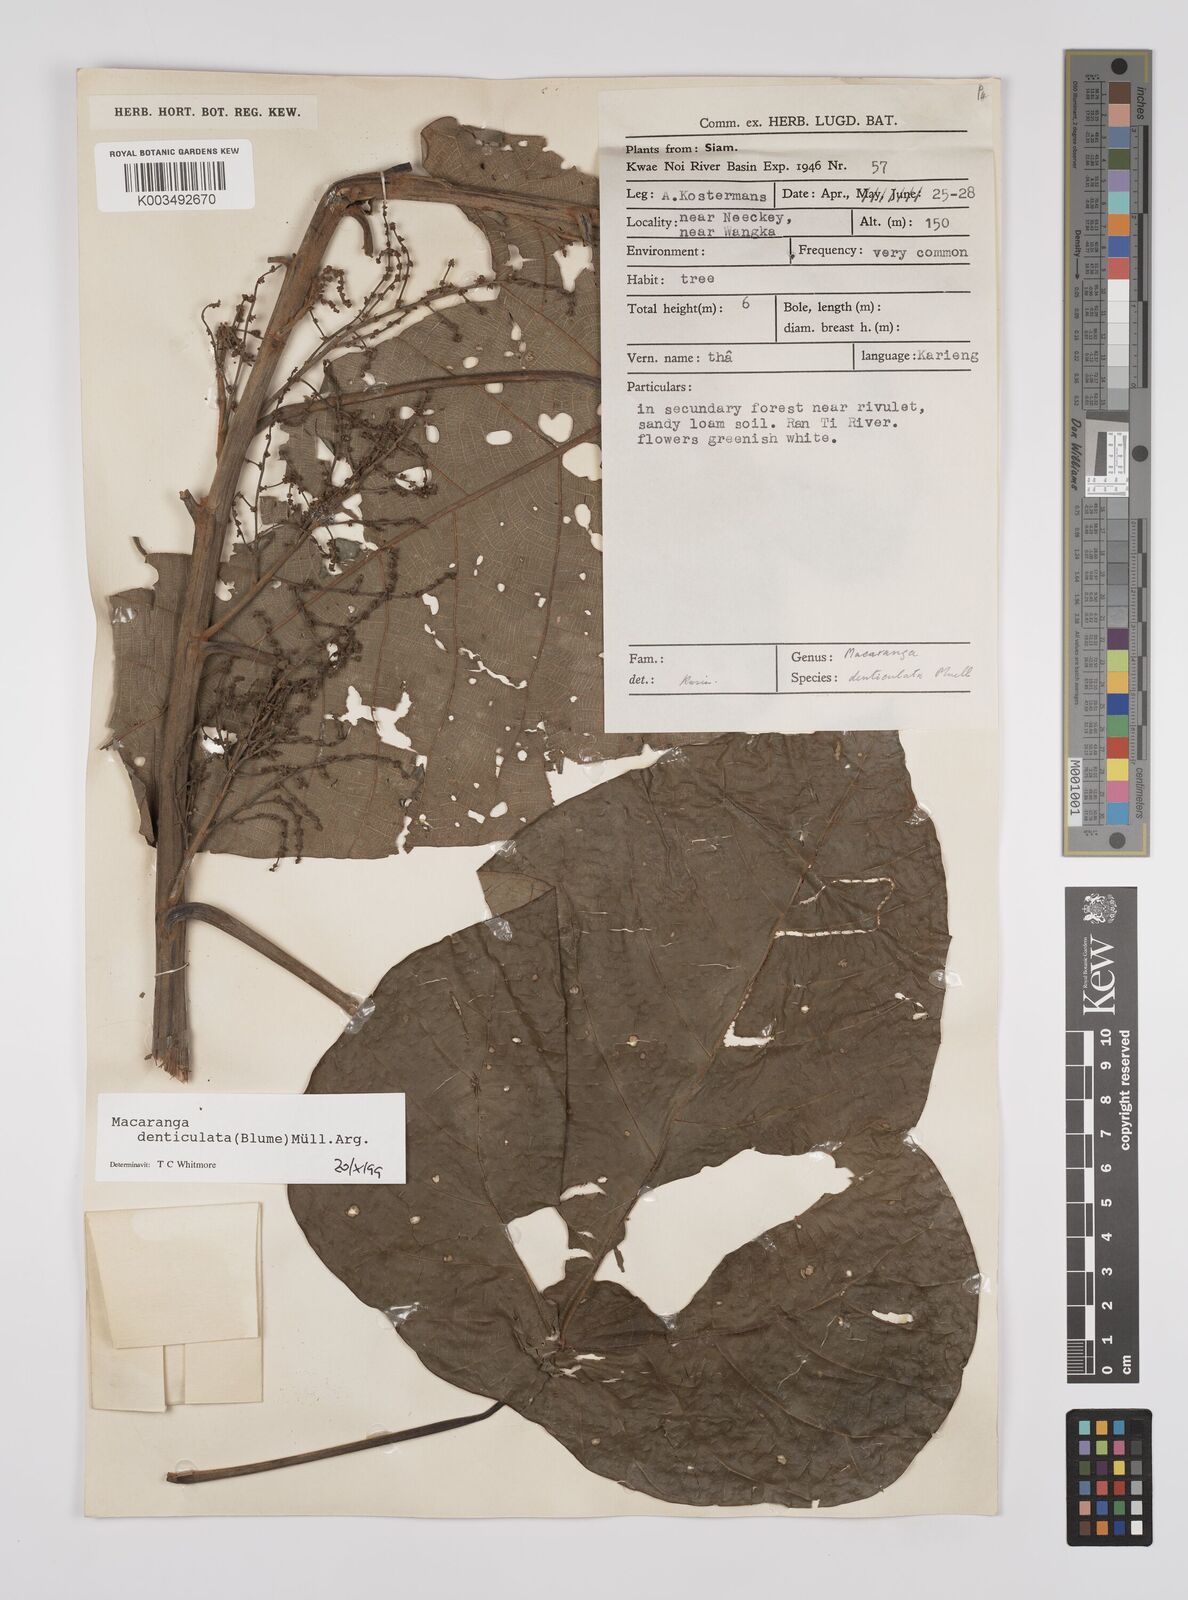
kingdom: Plantae
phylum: Tracheophyta
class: Magnoliopsida
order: Malpighiales
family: Euphorbiaceae
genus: Macaranga
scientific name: Macaranga denticulata
